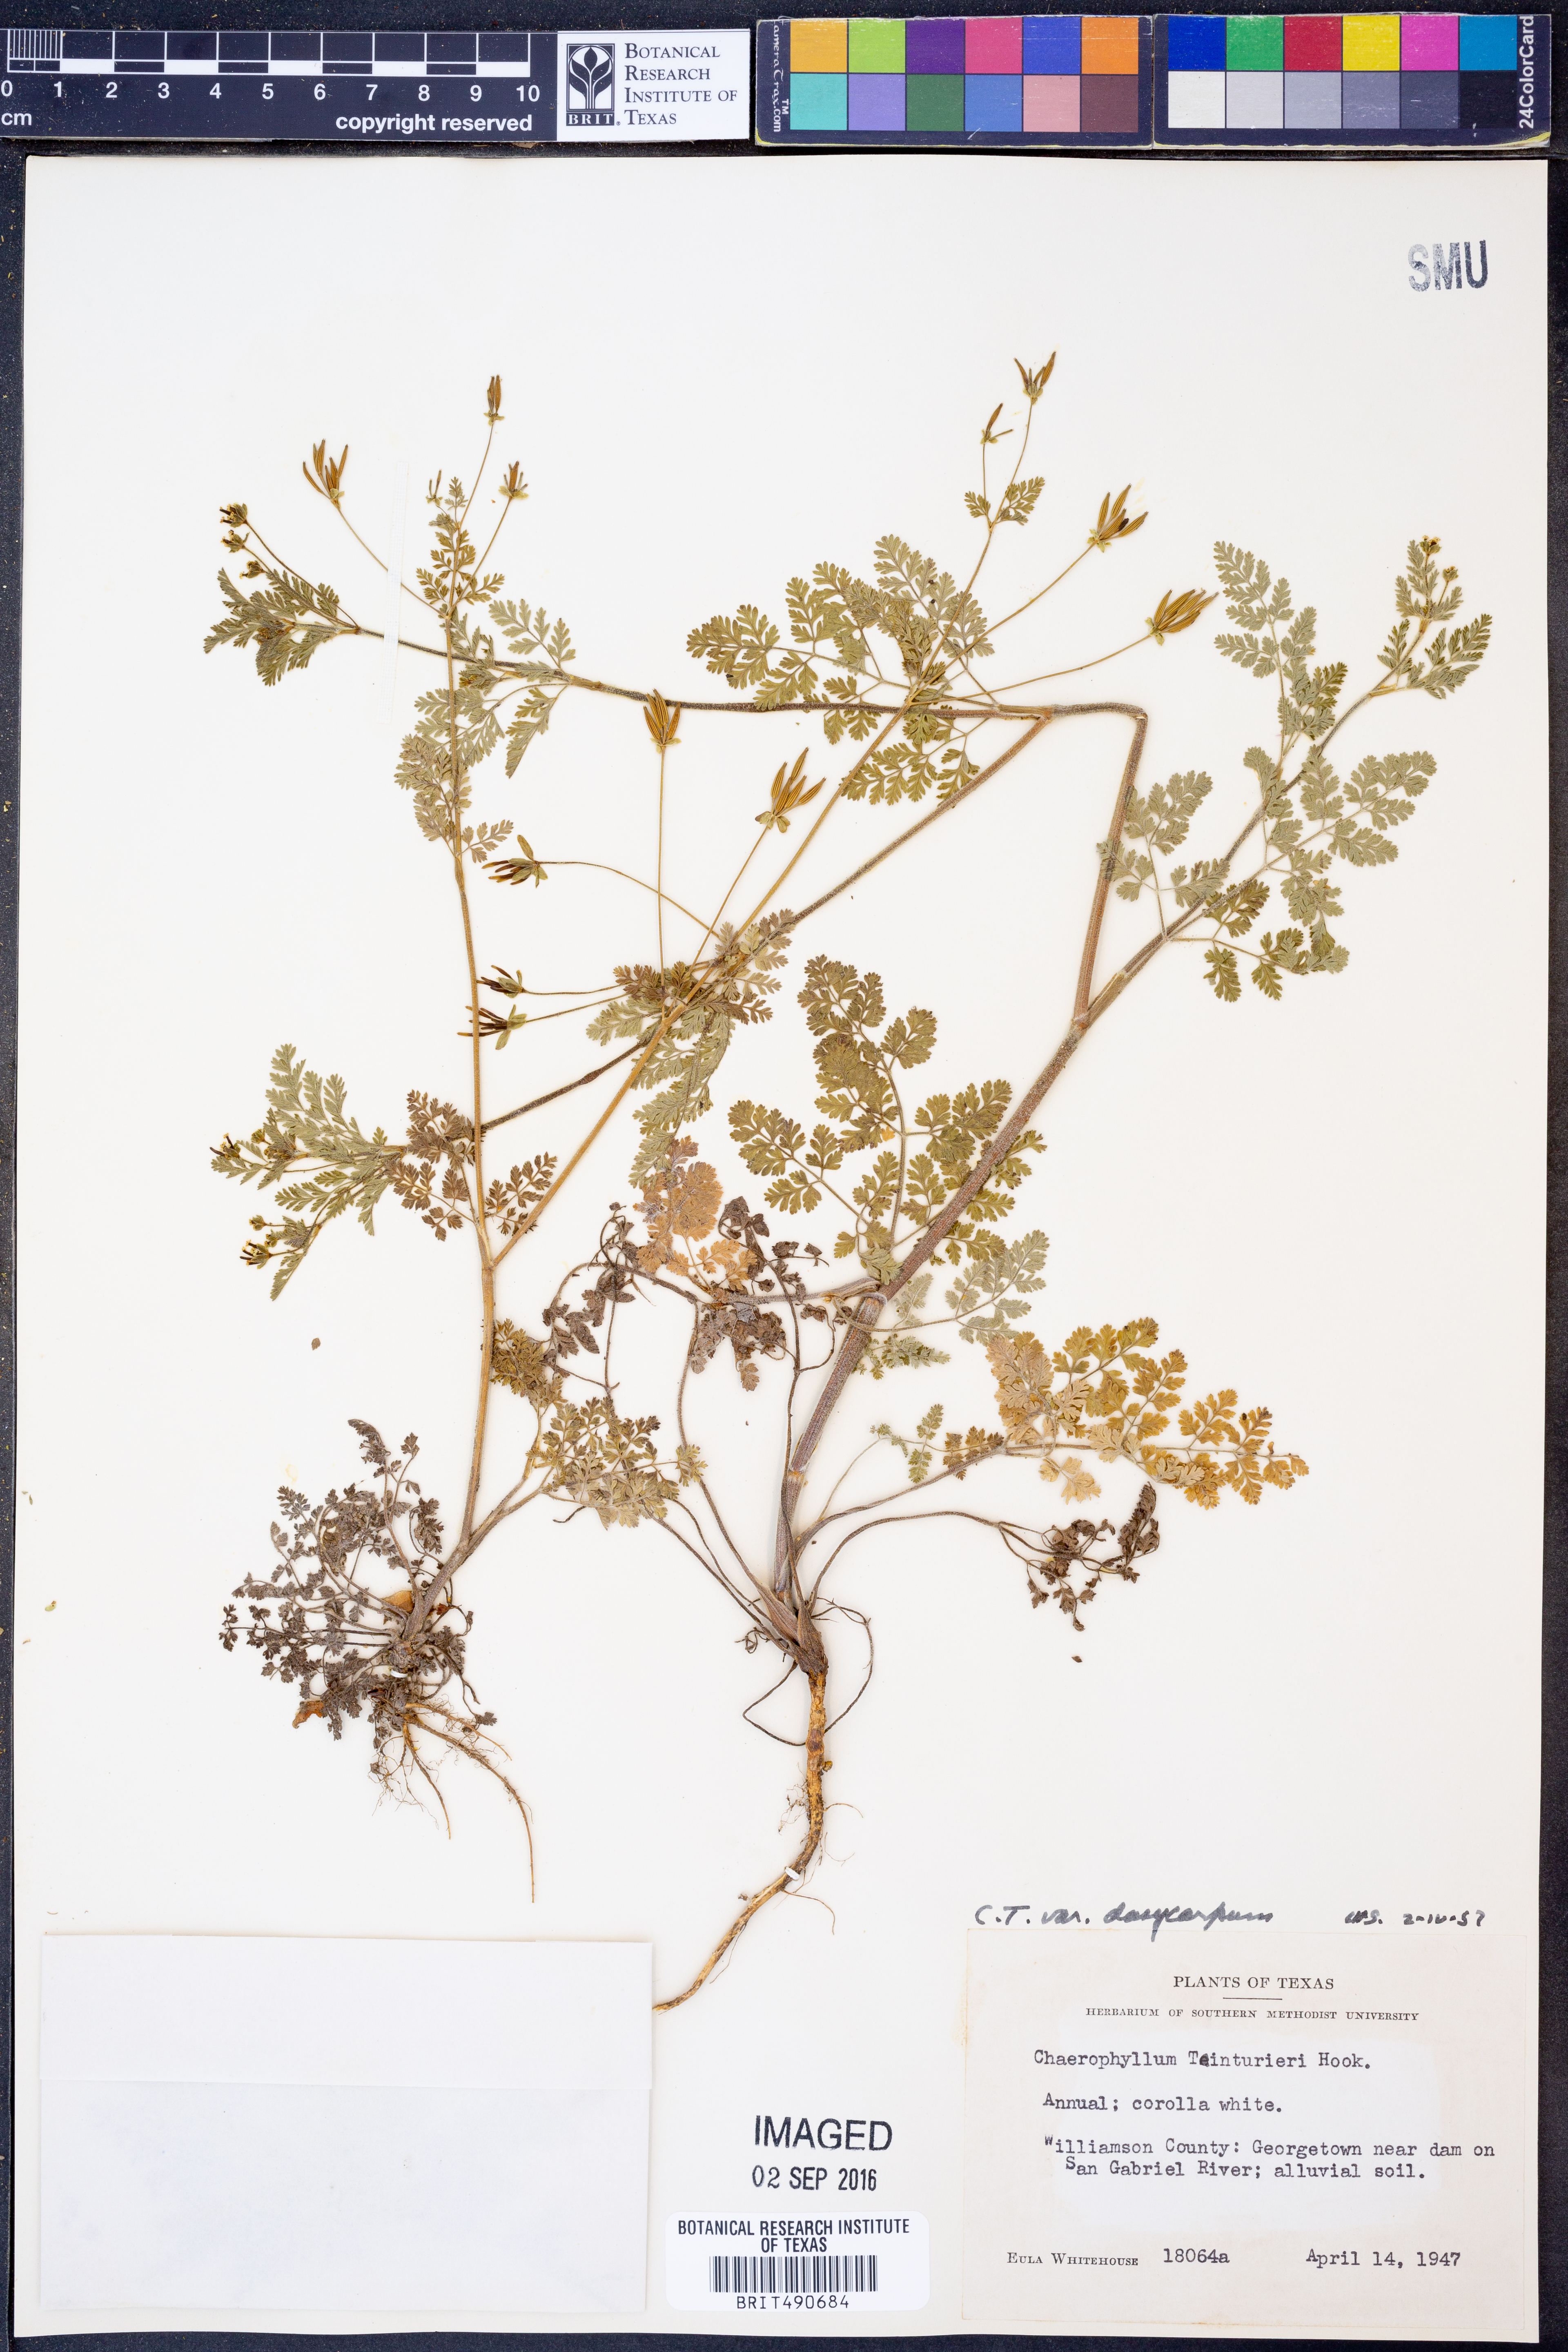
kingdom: Plantae
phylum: Tracheophyta
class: Magnoliopsida
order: Apiales
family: Apiaceae
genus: Chaerophyllum
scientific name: Chaerophyllum dasycarpum
